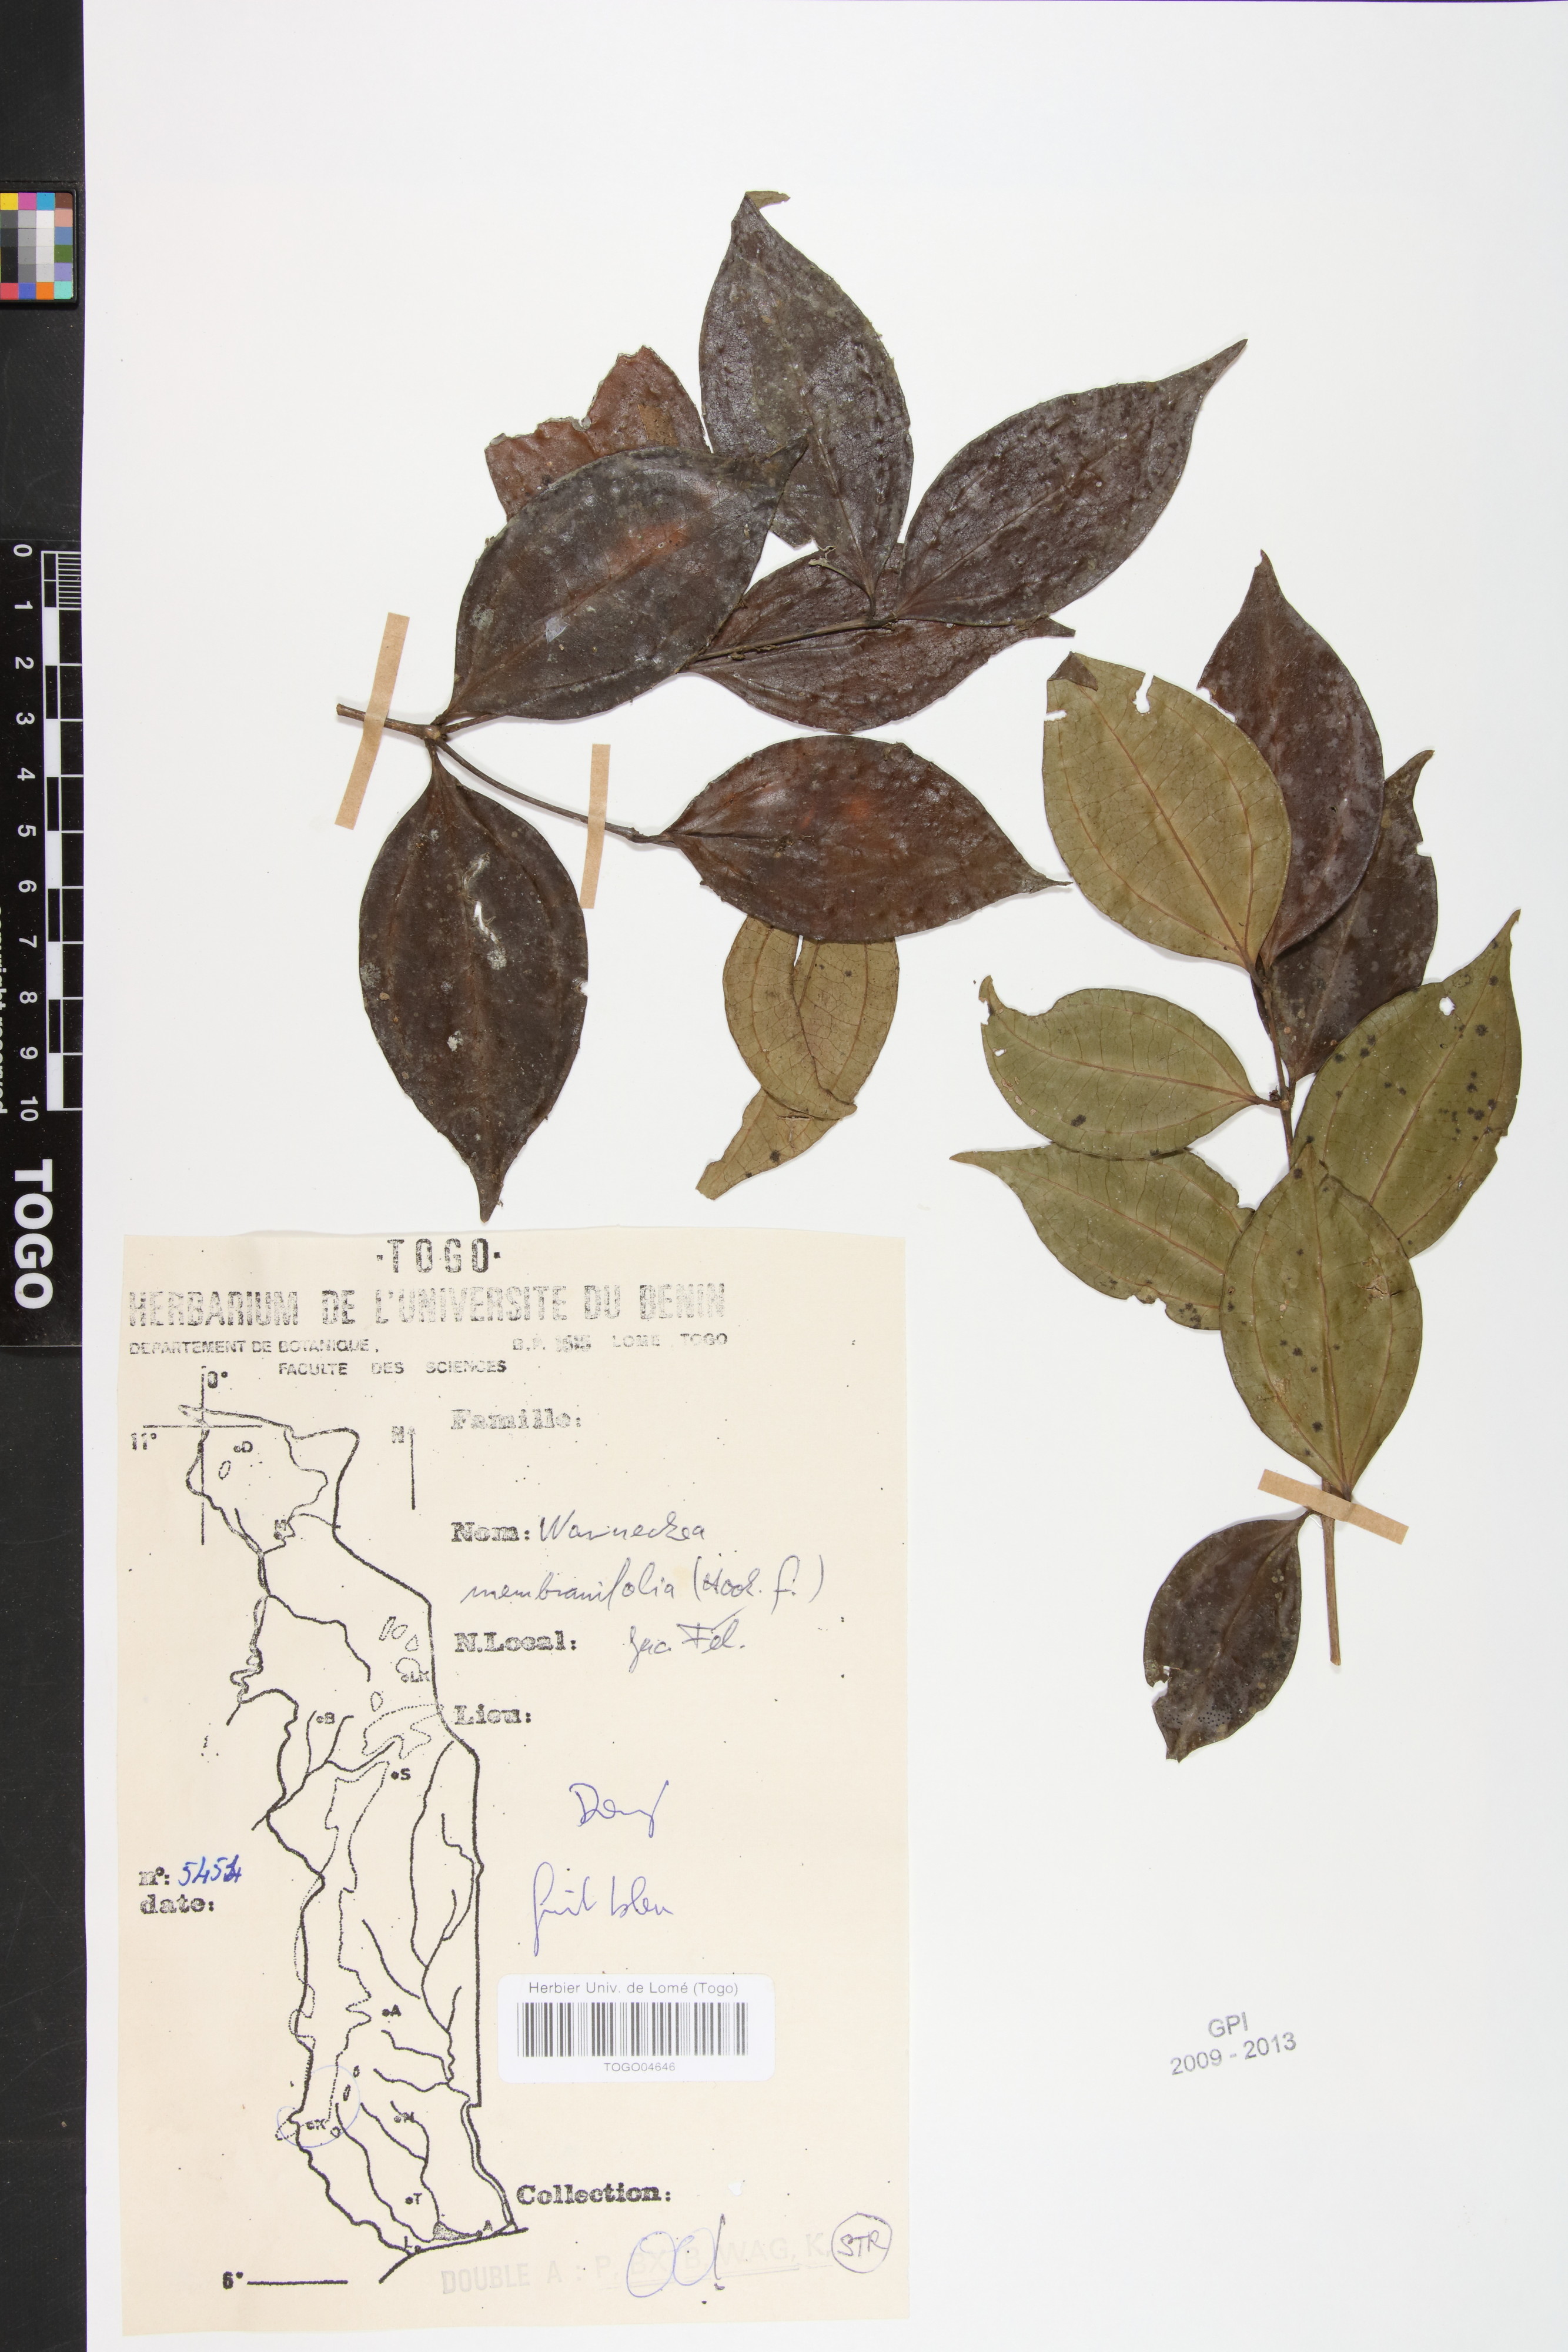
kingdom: Plantae
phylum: Tracheophyta
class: Magnoliopsida
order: Myrtales
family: Melastomataceae
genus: Warneckea
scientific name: Warneckea membranifolia
